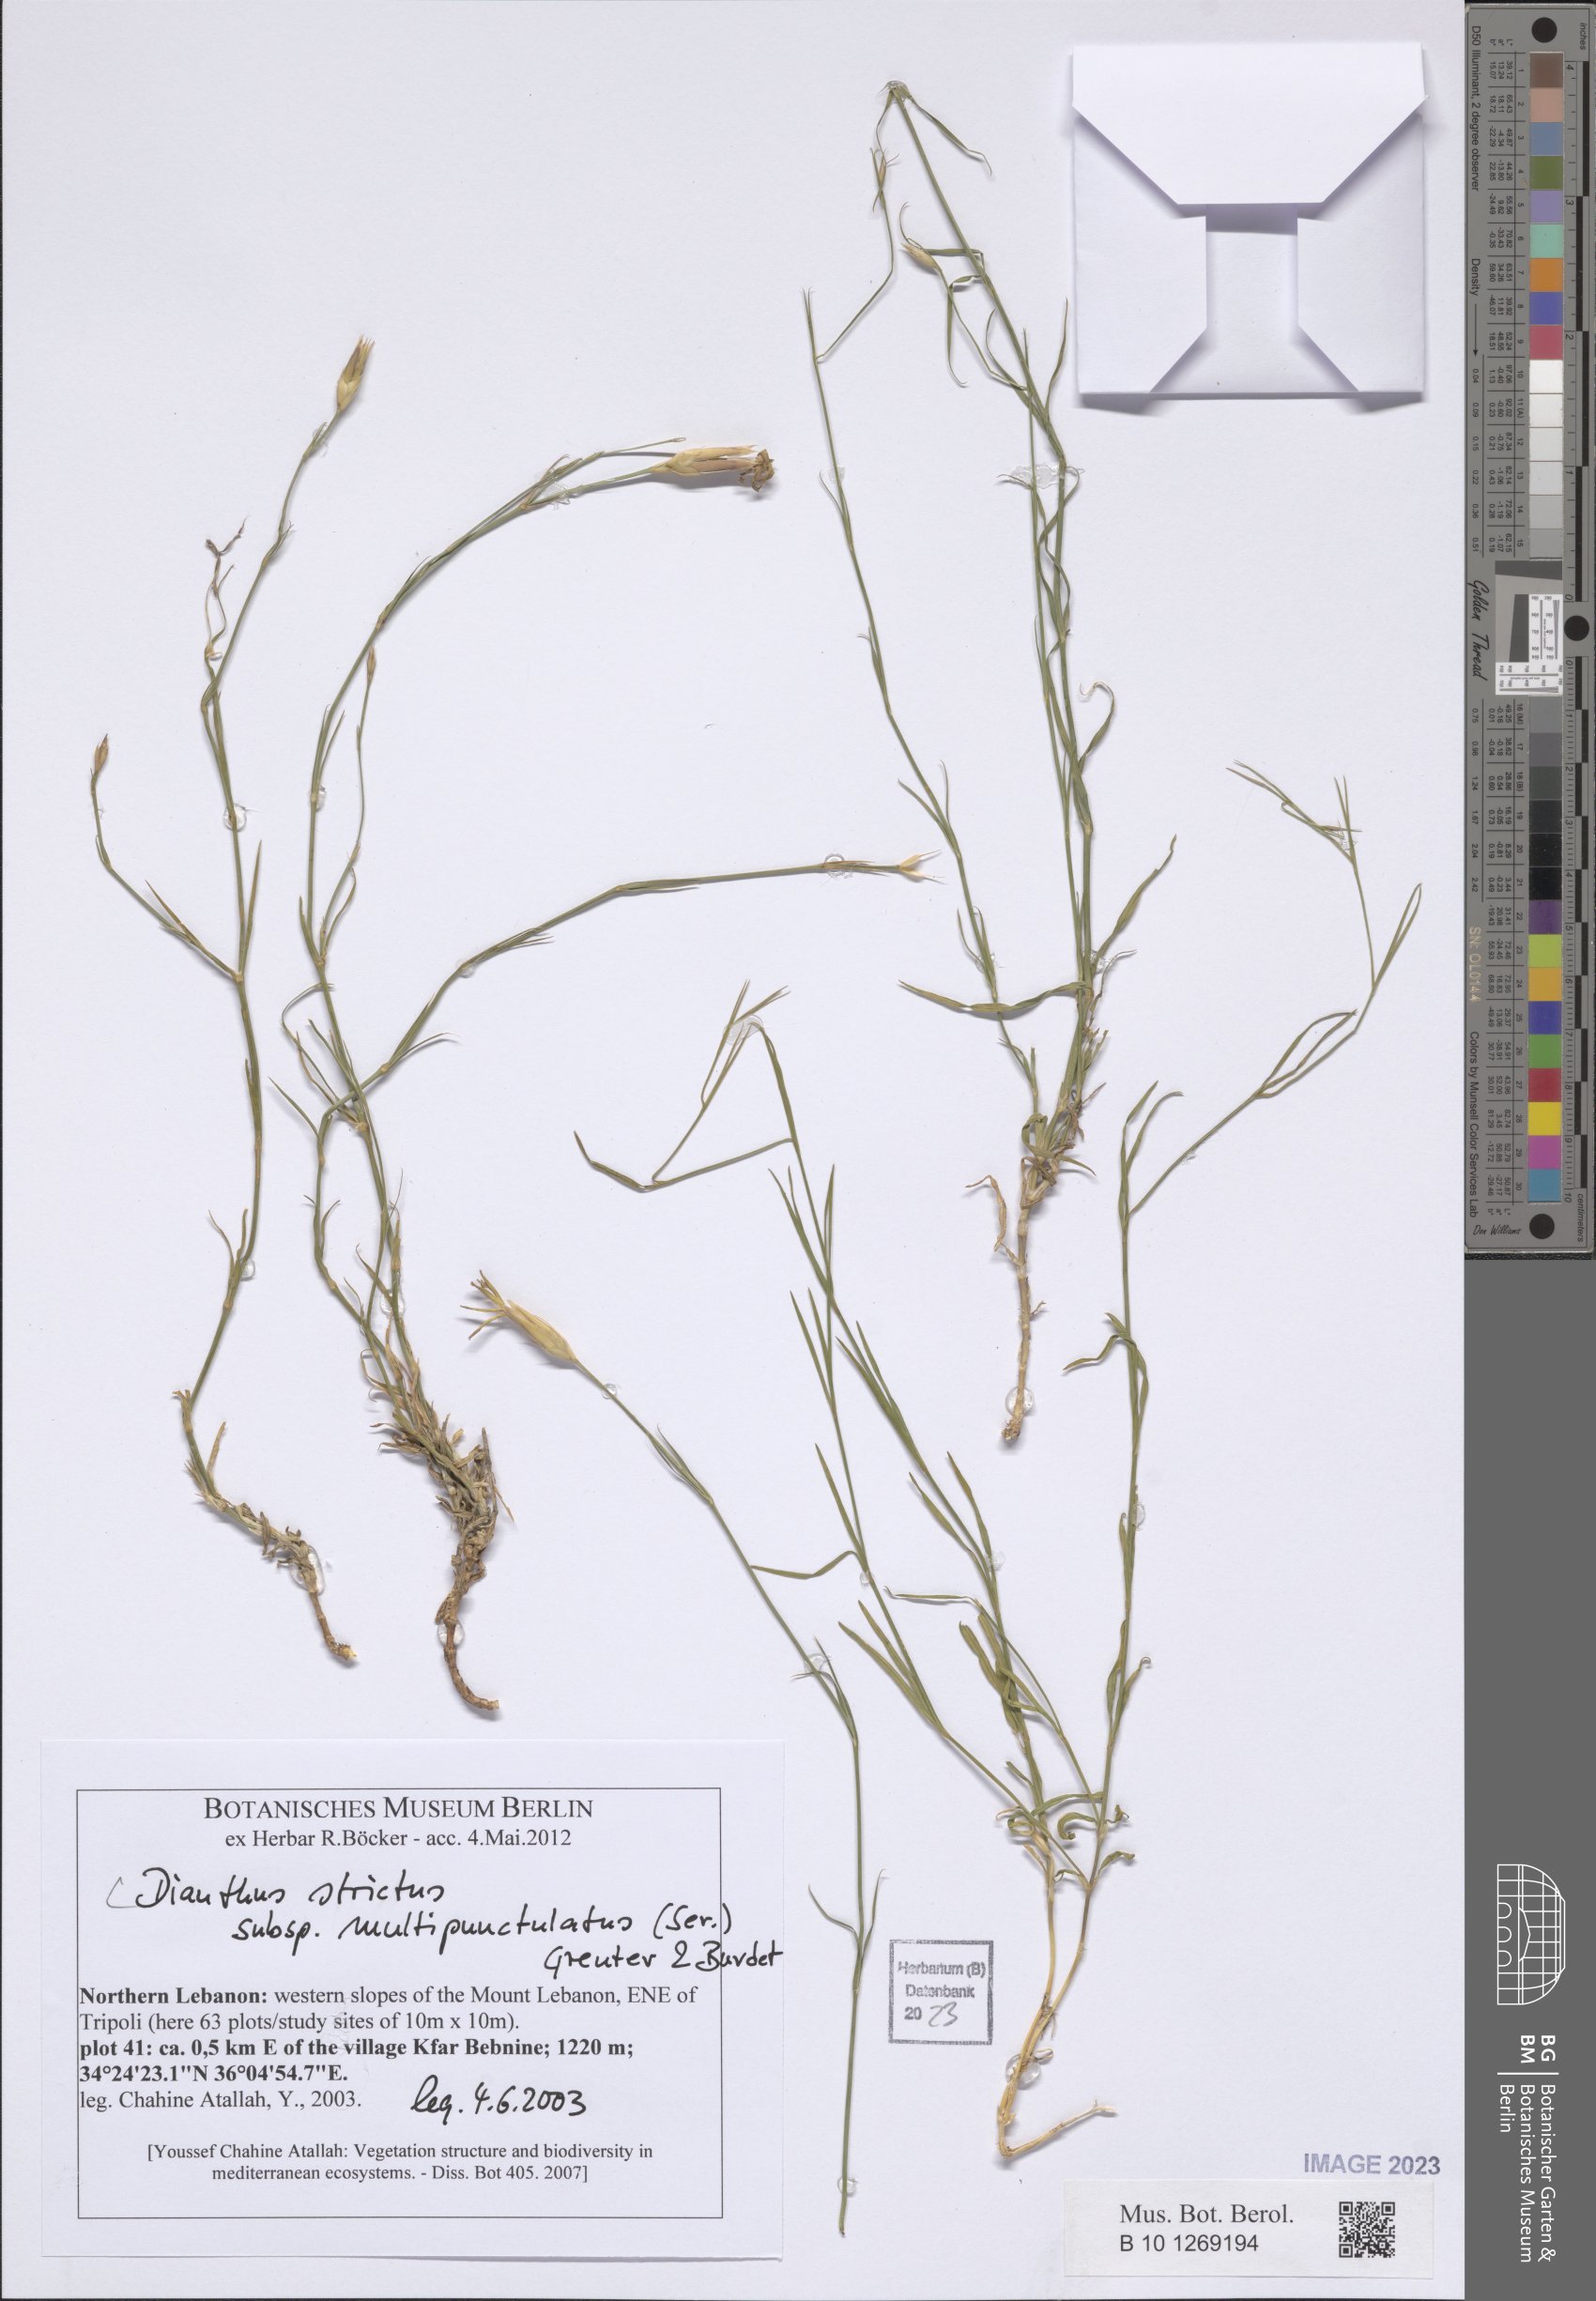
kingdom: Plantae
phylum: Tracheophyta
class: Magnoliopsida
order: Caryophyllales
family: Caryophyllaceae
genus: Dianthus
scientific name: Dianthus strictus
